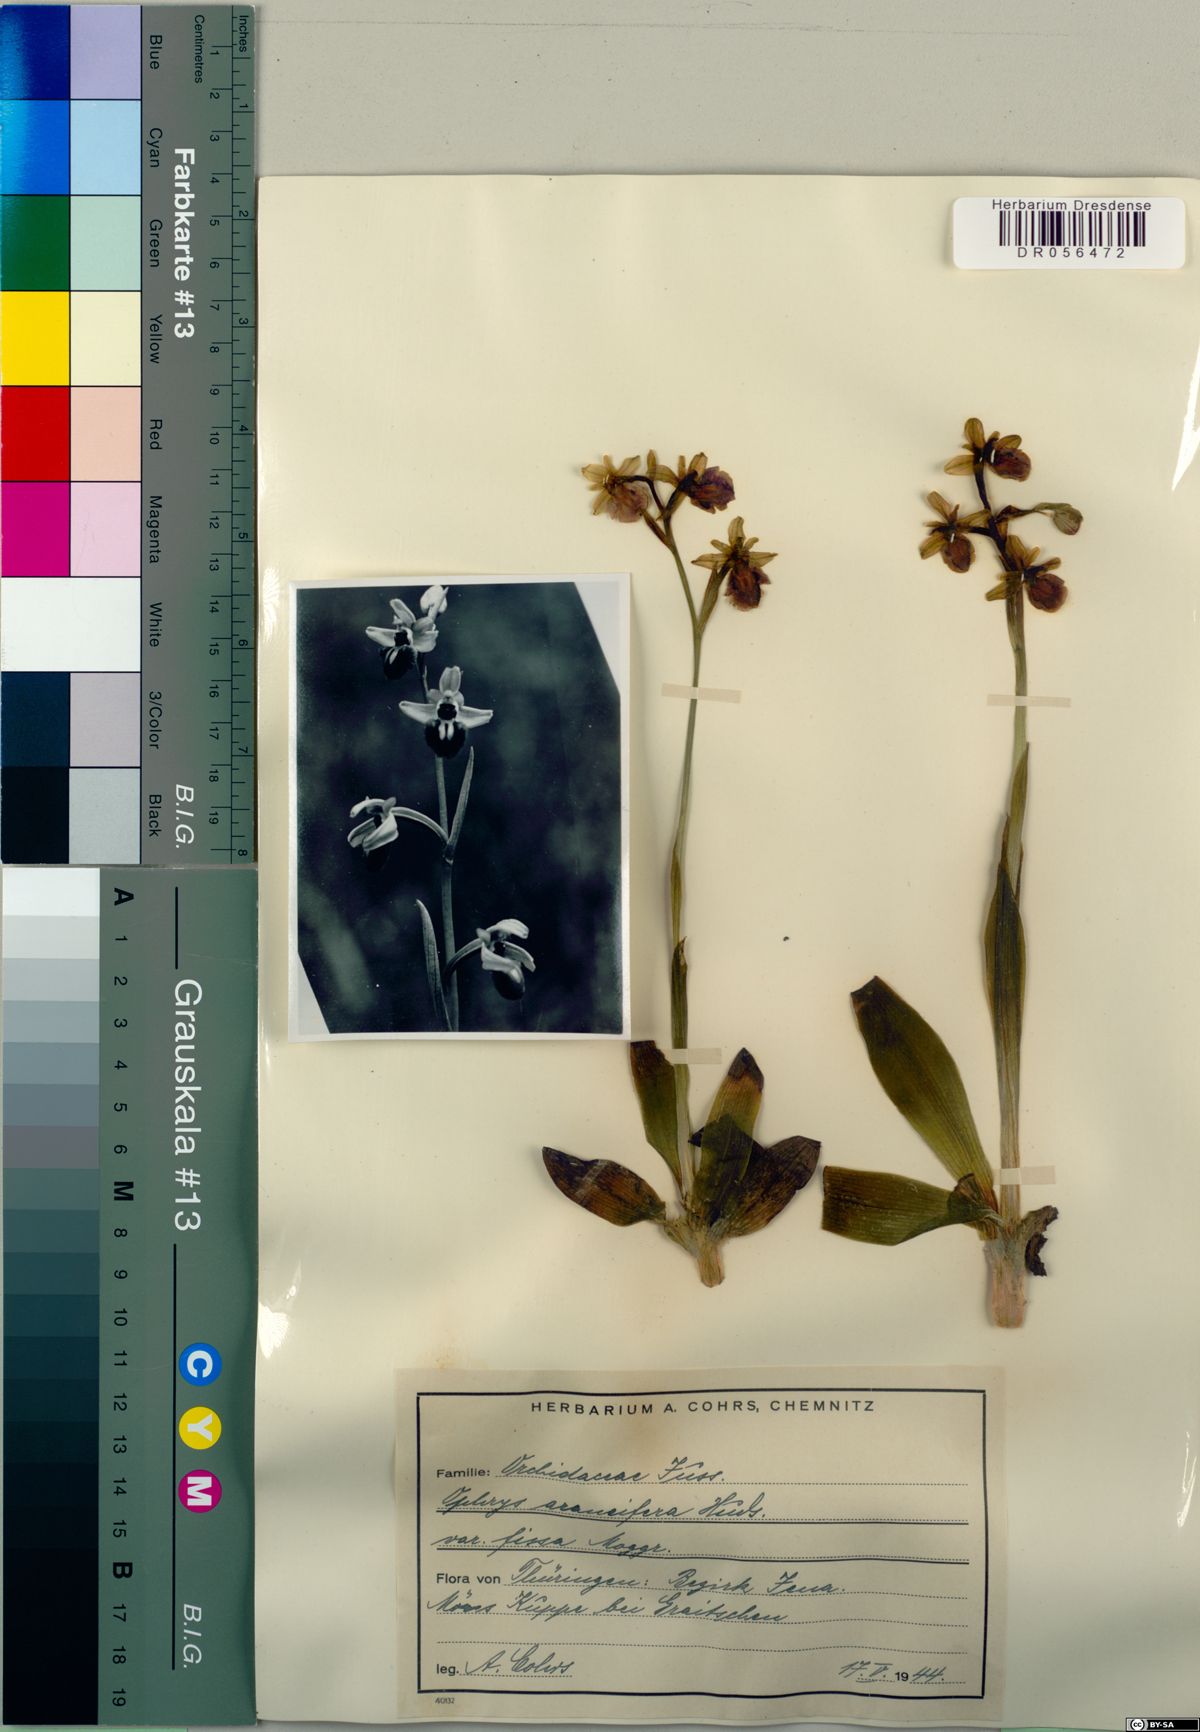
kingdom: Plantae
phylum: Tracheophyta
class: Liliopsida
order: Asparagales
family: Orchidaceae
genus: Ophrys
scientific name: Ophrys sphegodes
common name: Early spider-orchid
